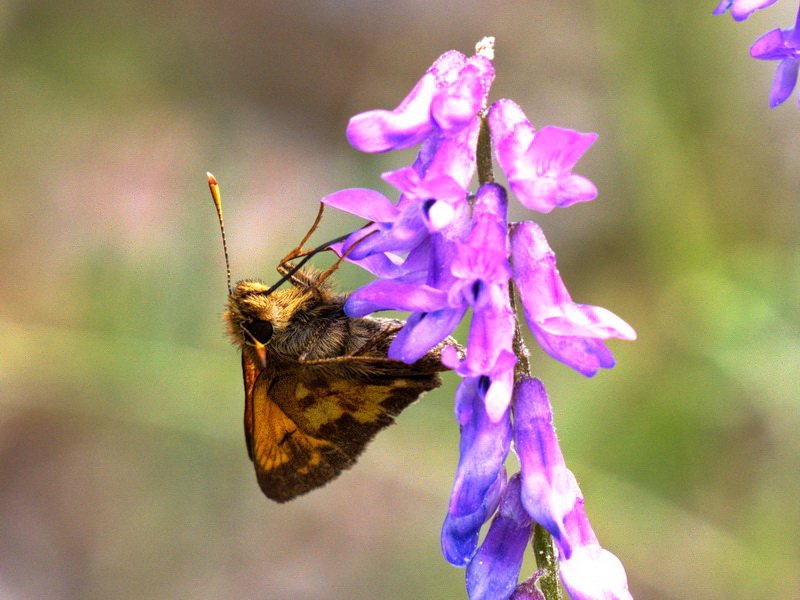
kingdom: Animalia
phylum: Arthropoda
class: Insecta
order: Lepidoptera
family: Hesperiidae
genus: Lon
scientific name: Lon hobomok
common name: Hobomok Skipper
